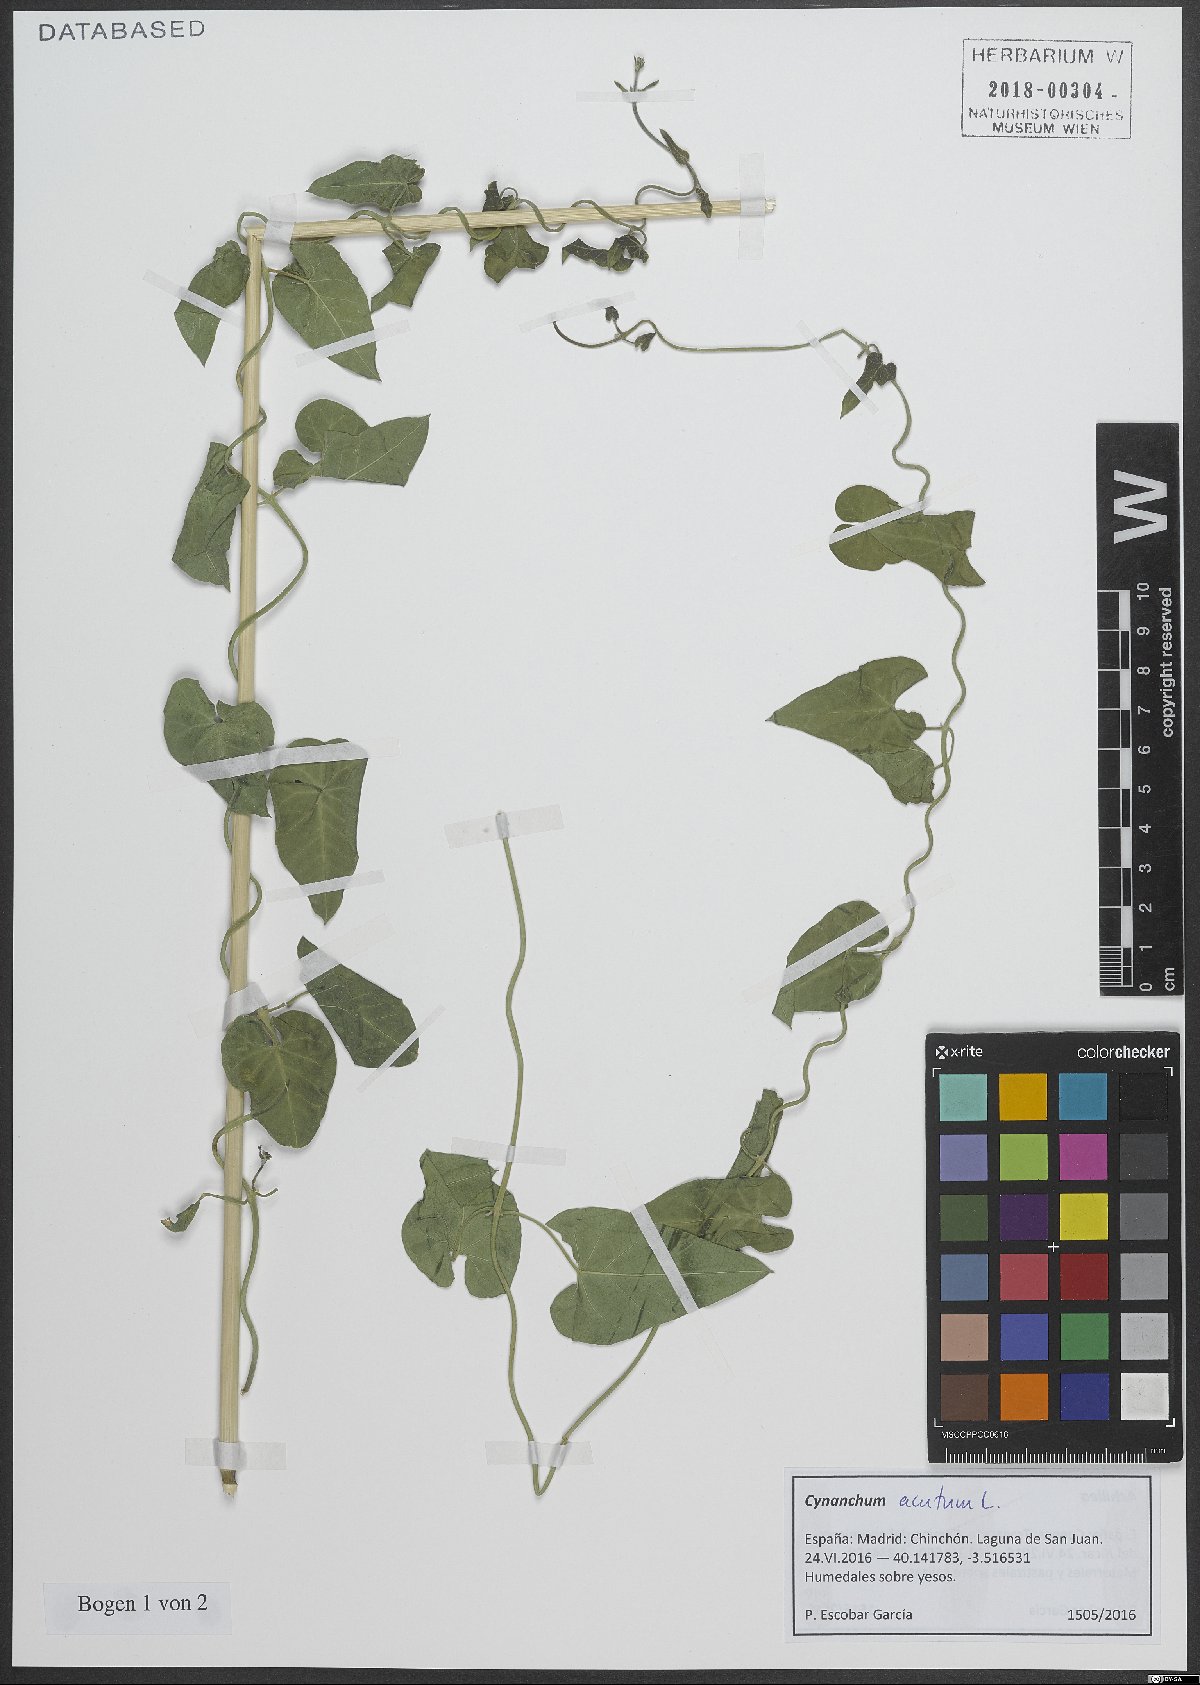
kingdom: Plantae
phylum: Tracheophyta
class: Magnoliopsida
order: Gentianales
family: Apocynaceae
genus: Cynanchum
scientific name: Cynanchum acutum
